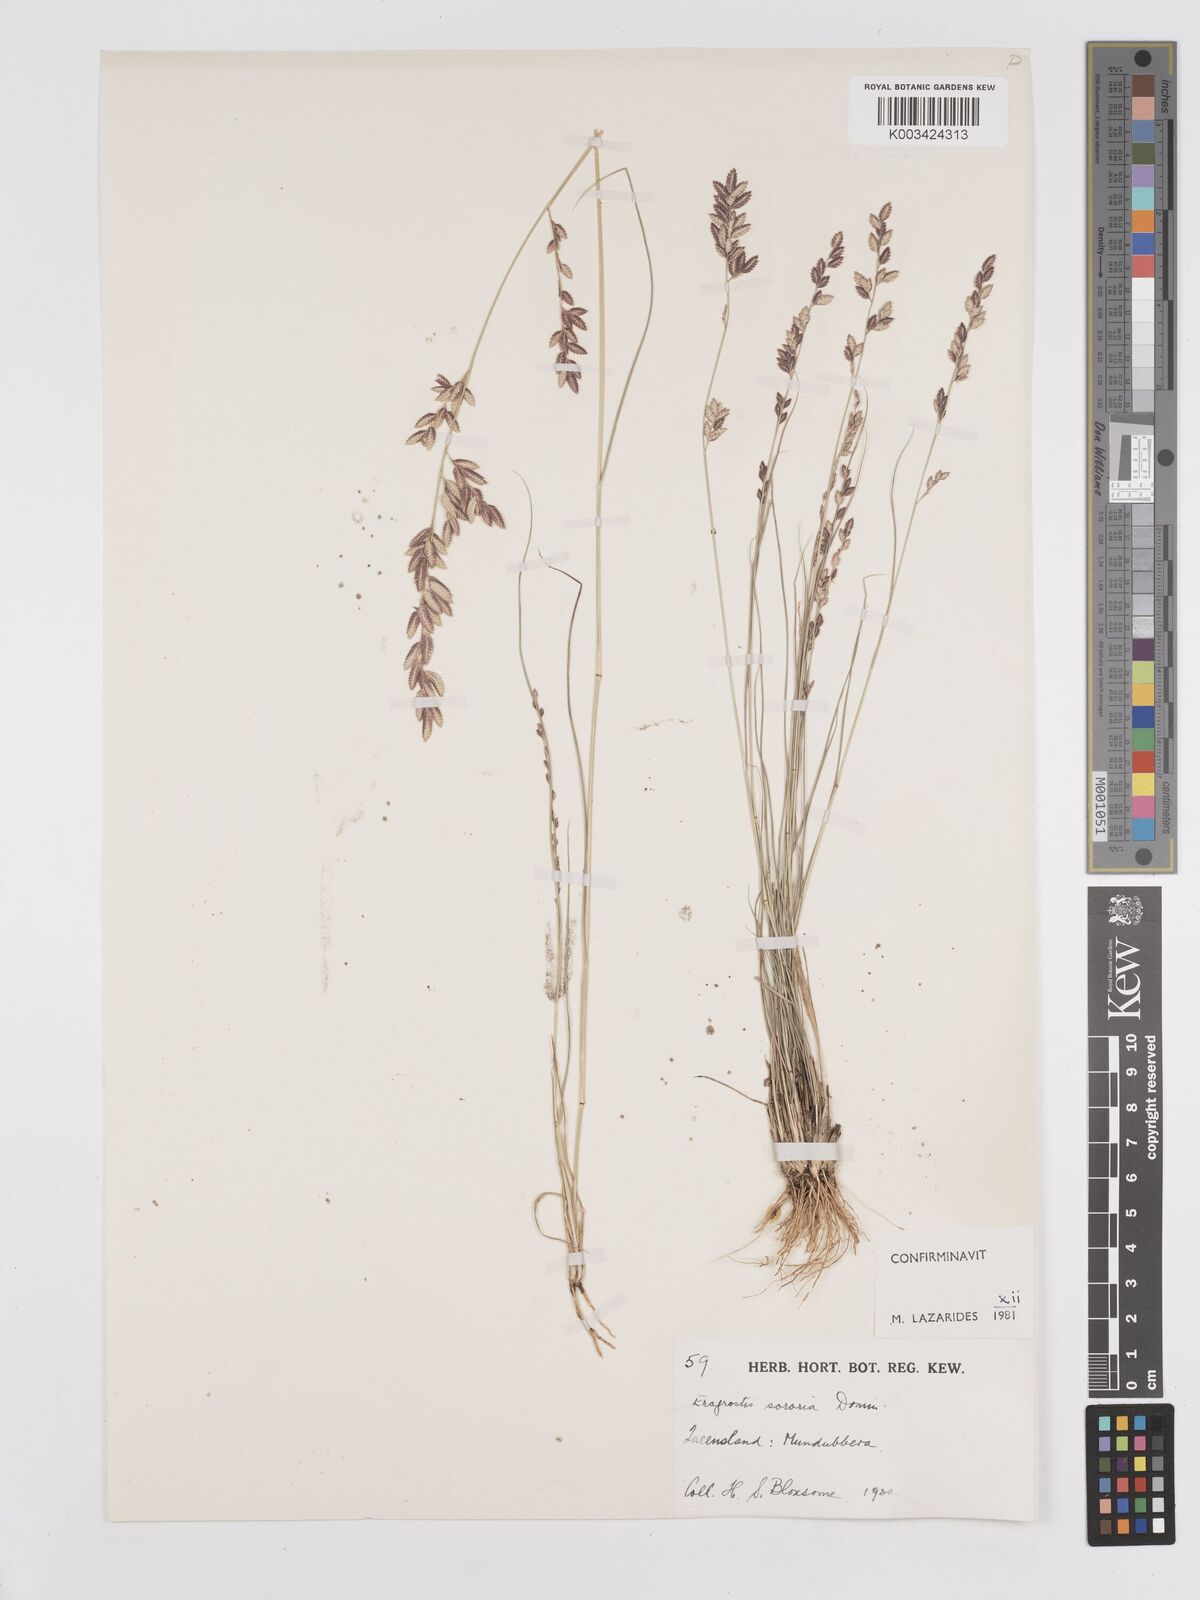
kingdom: Plantae
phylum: Tracheophyta
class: Liliopsida
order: Poales
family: Poaceae
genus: Eragrostis
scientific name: Eragrostis sororia
